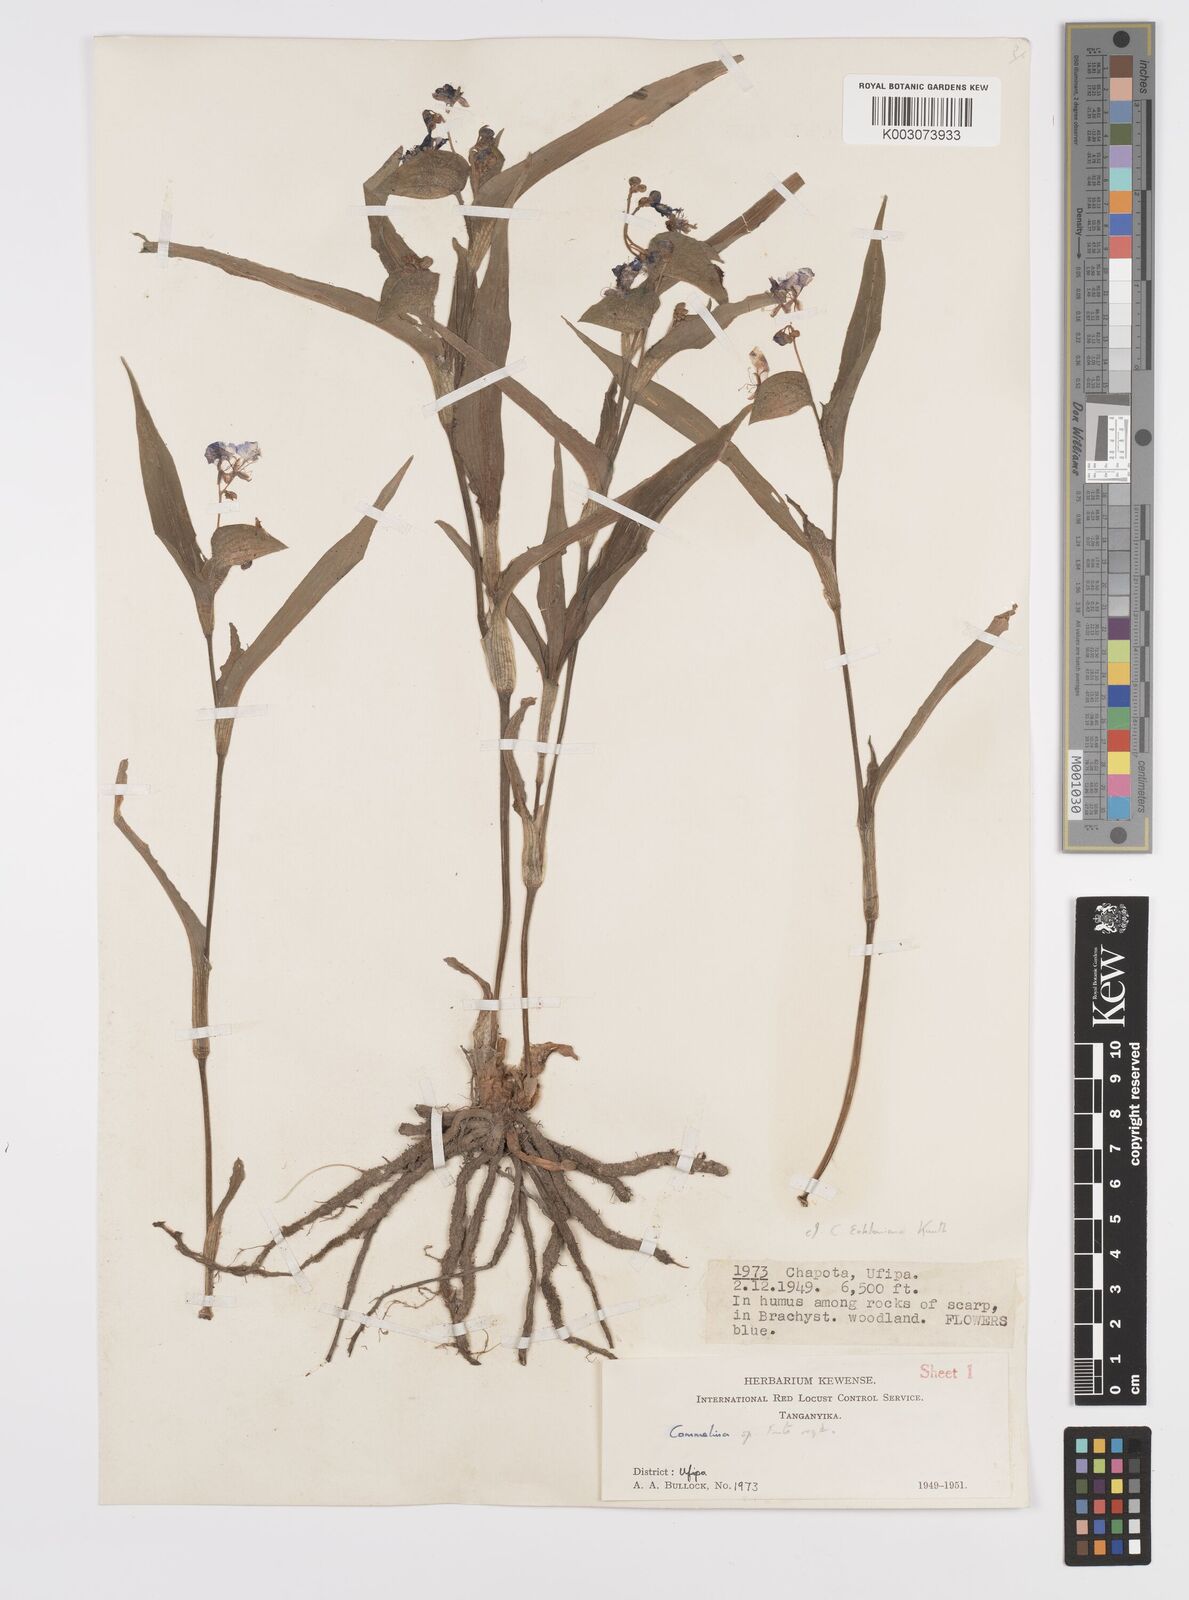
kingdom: Plantae
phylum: Tracheophyta
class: Liliopsida
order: Commelinales
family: Commelinaceae
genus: Commelina
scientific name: Commelina eckloniana
